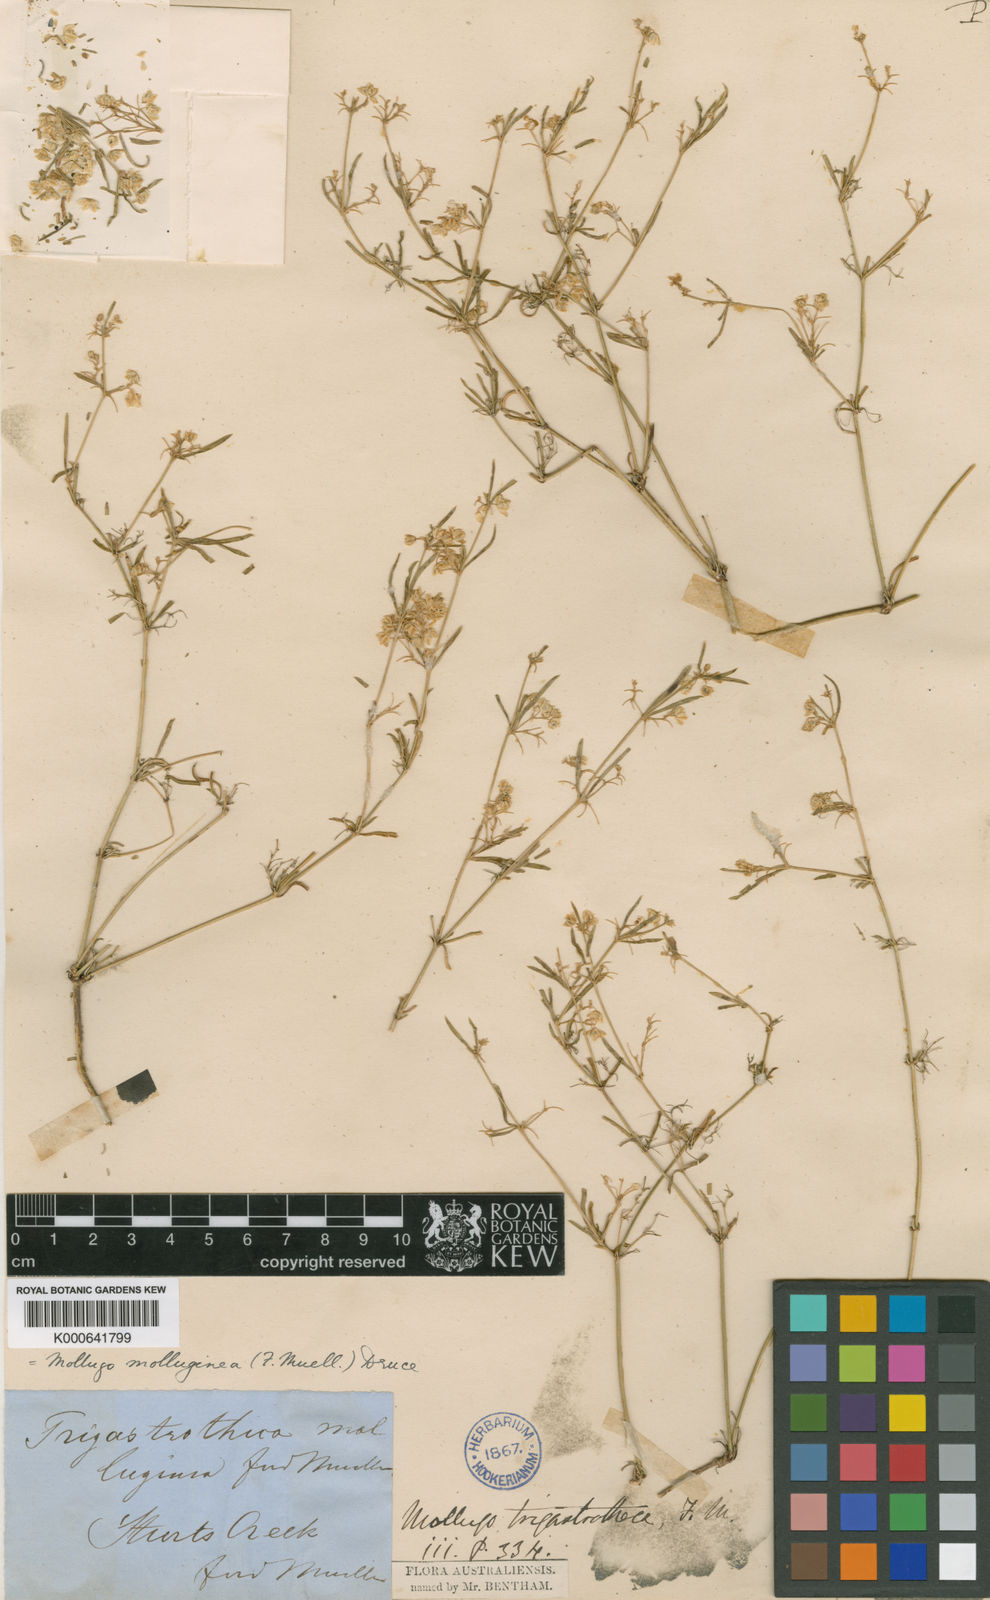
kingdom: Plantae
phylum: Tracheophyta
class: Magnoliopsida
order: Caryophyllales
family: Molluginaceae
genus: Mollugo
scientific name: Mollugo
